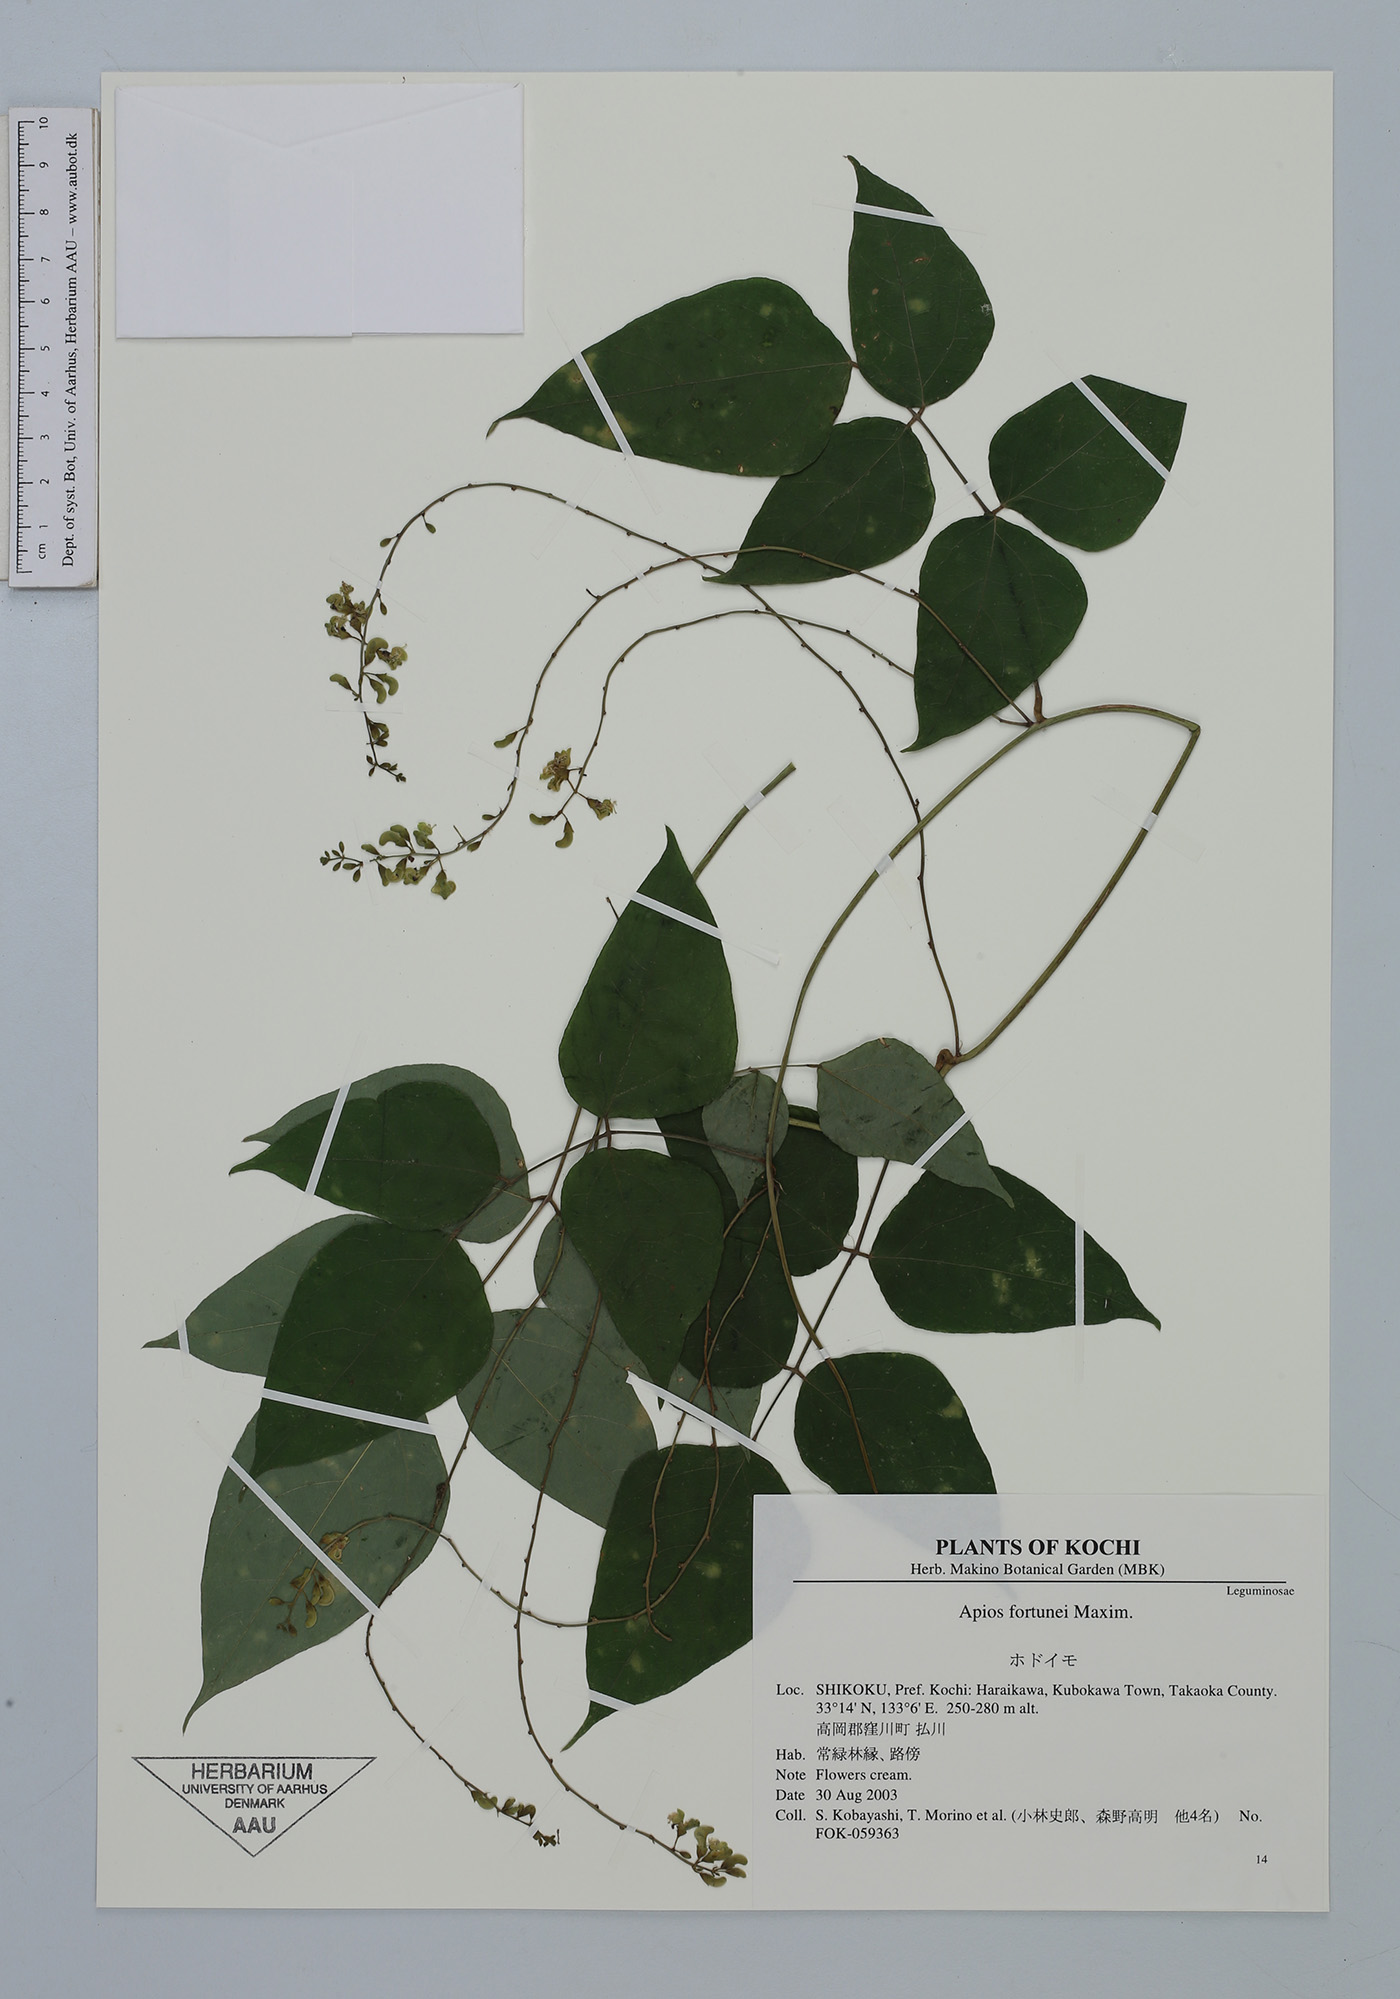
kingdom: Plantae
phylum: Tracheophyta
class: Magnoliopsida
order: Fabales
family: Fabaceae
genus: Apios
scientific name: Apios fortunei
